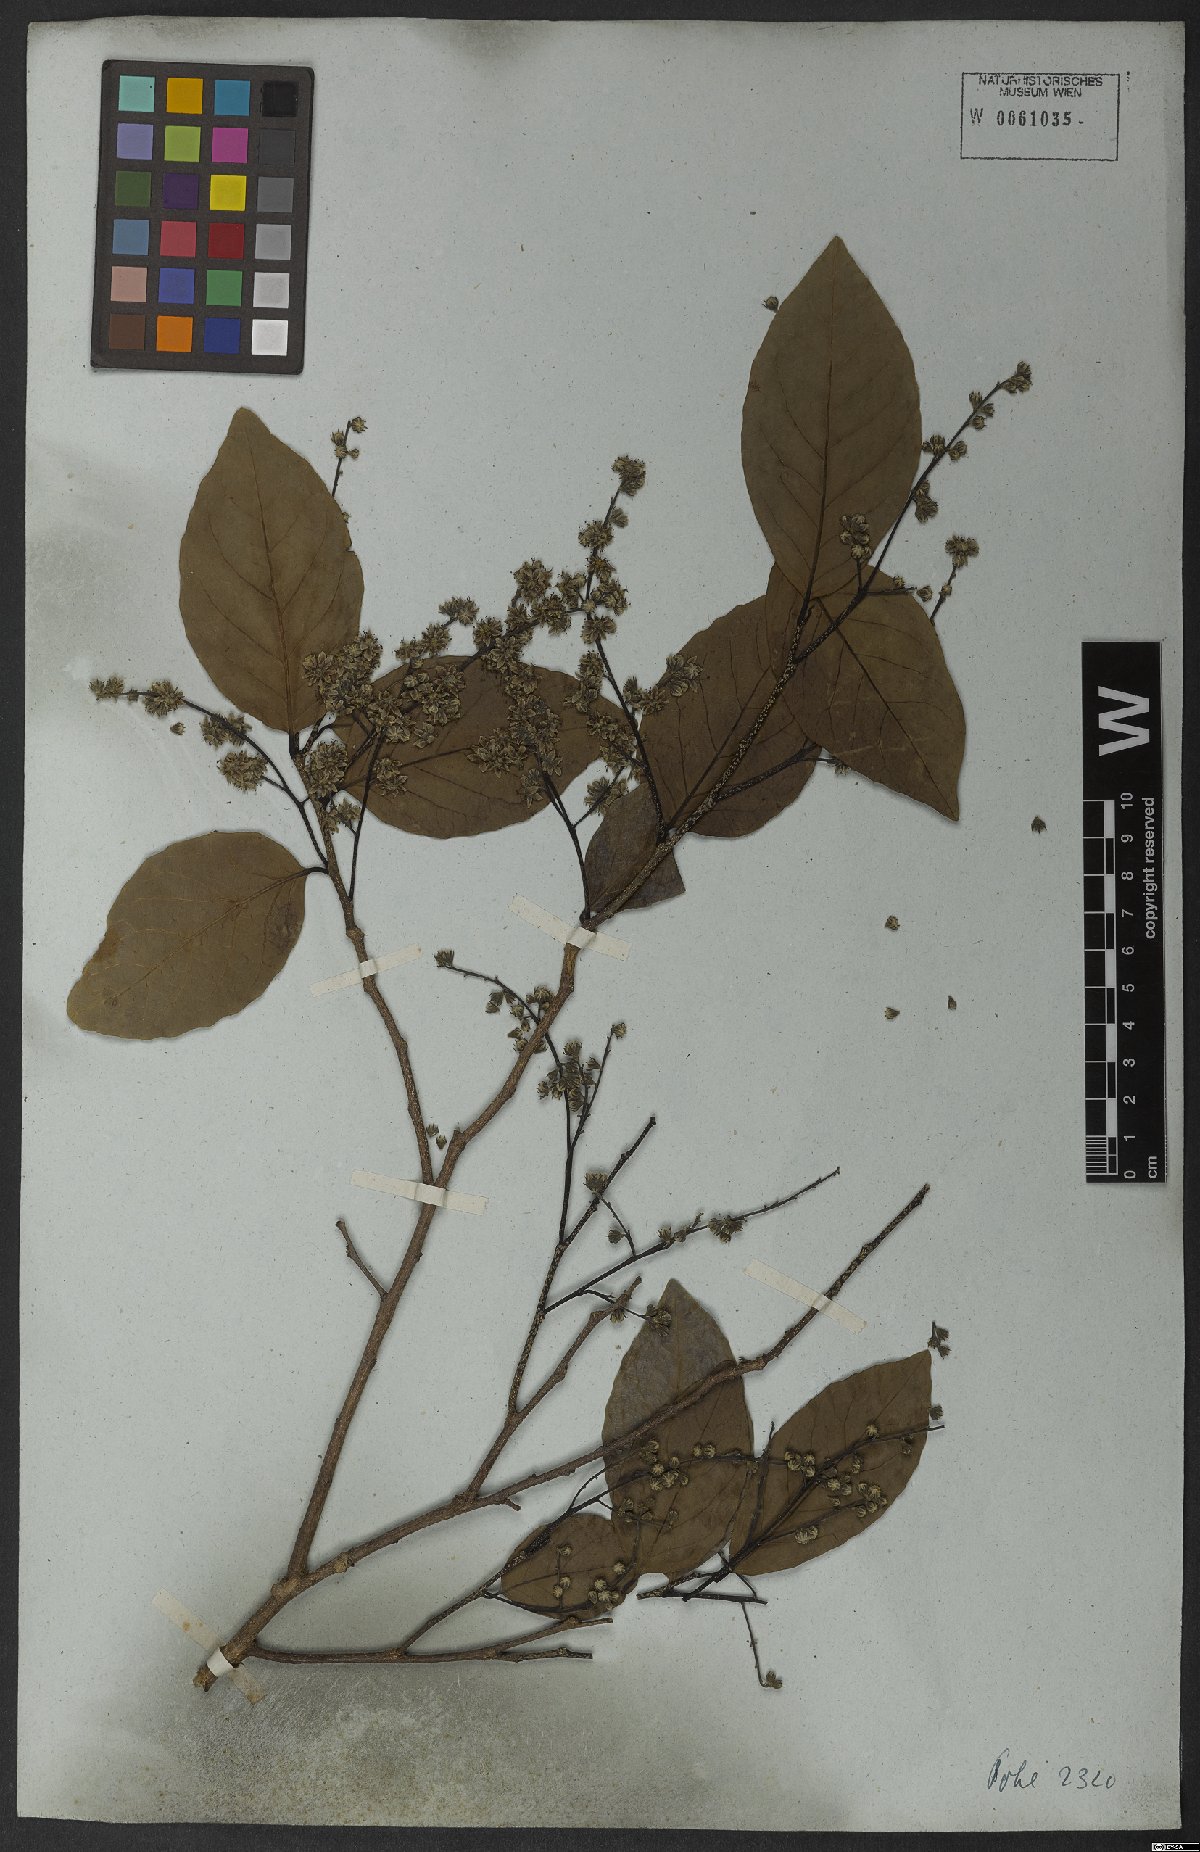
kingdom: Plantae
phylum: Tracheophyta
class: Magnoliopsida
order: Malpighiales
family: Salicaceae
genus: Homalium
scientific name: Homalium
